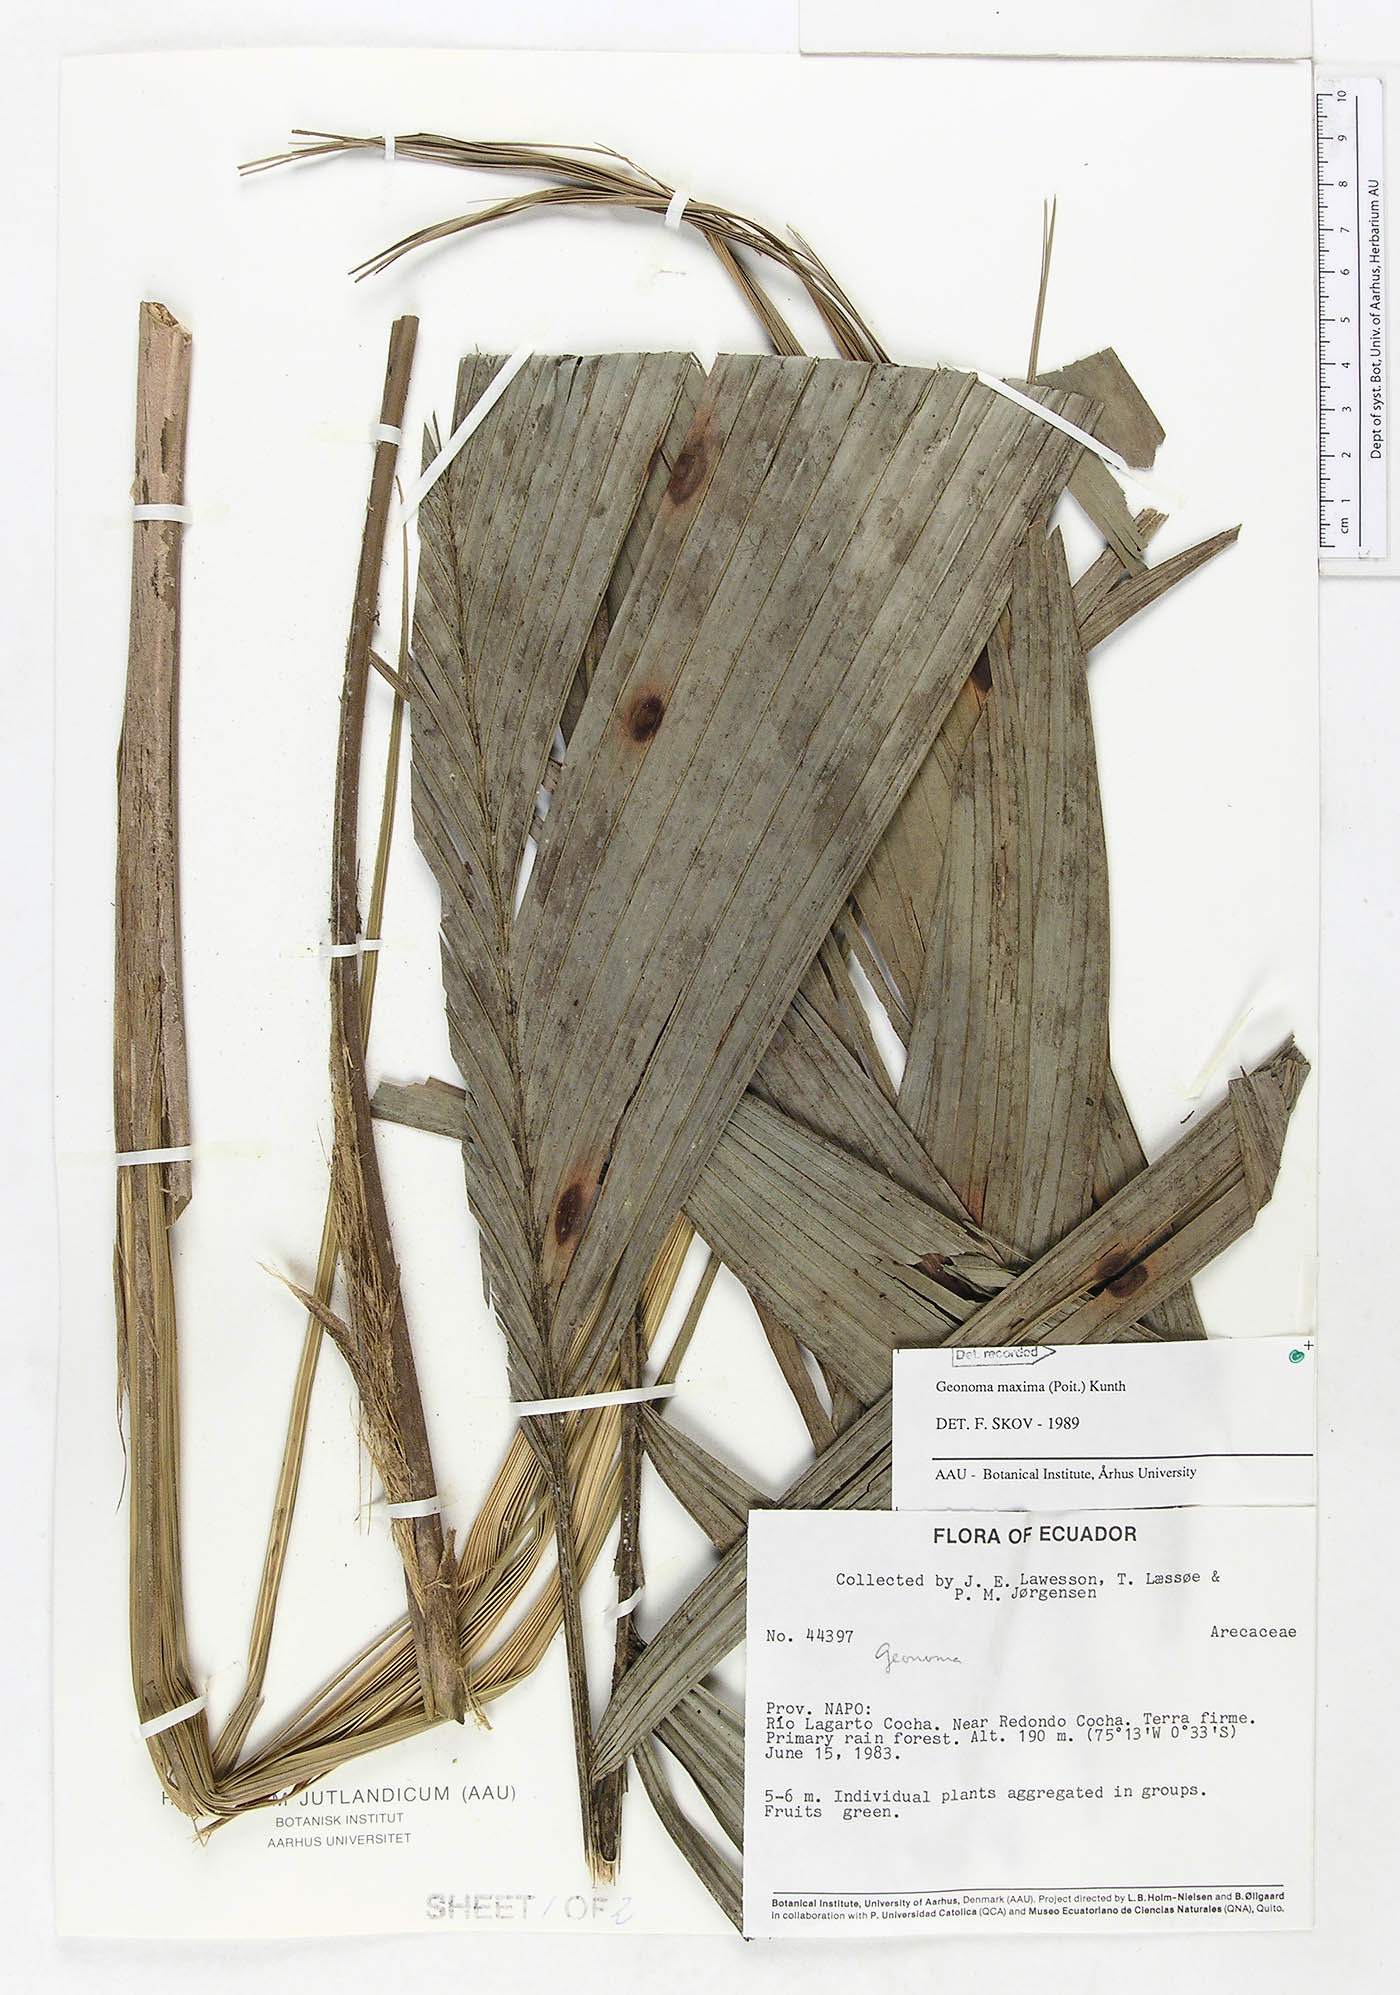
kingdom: Plantae
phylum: Tracheophyta
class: Liliopsida
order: Arecales
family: Arecaceae
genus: Geonoma
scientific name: Geonoma maxima
